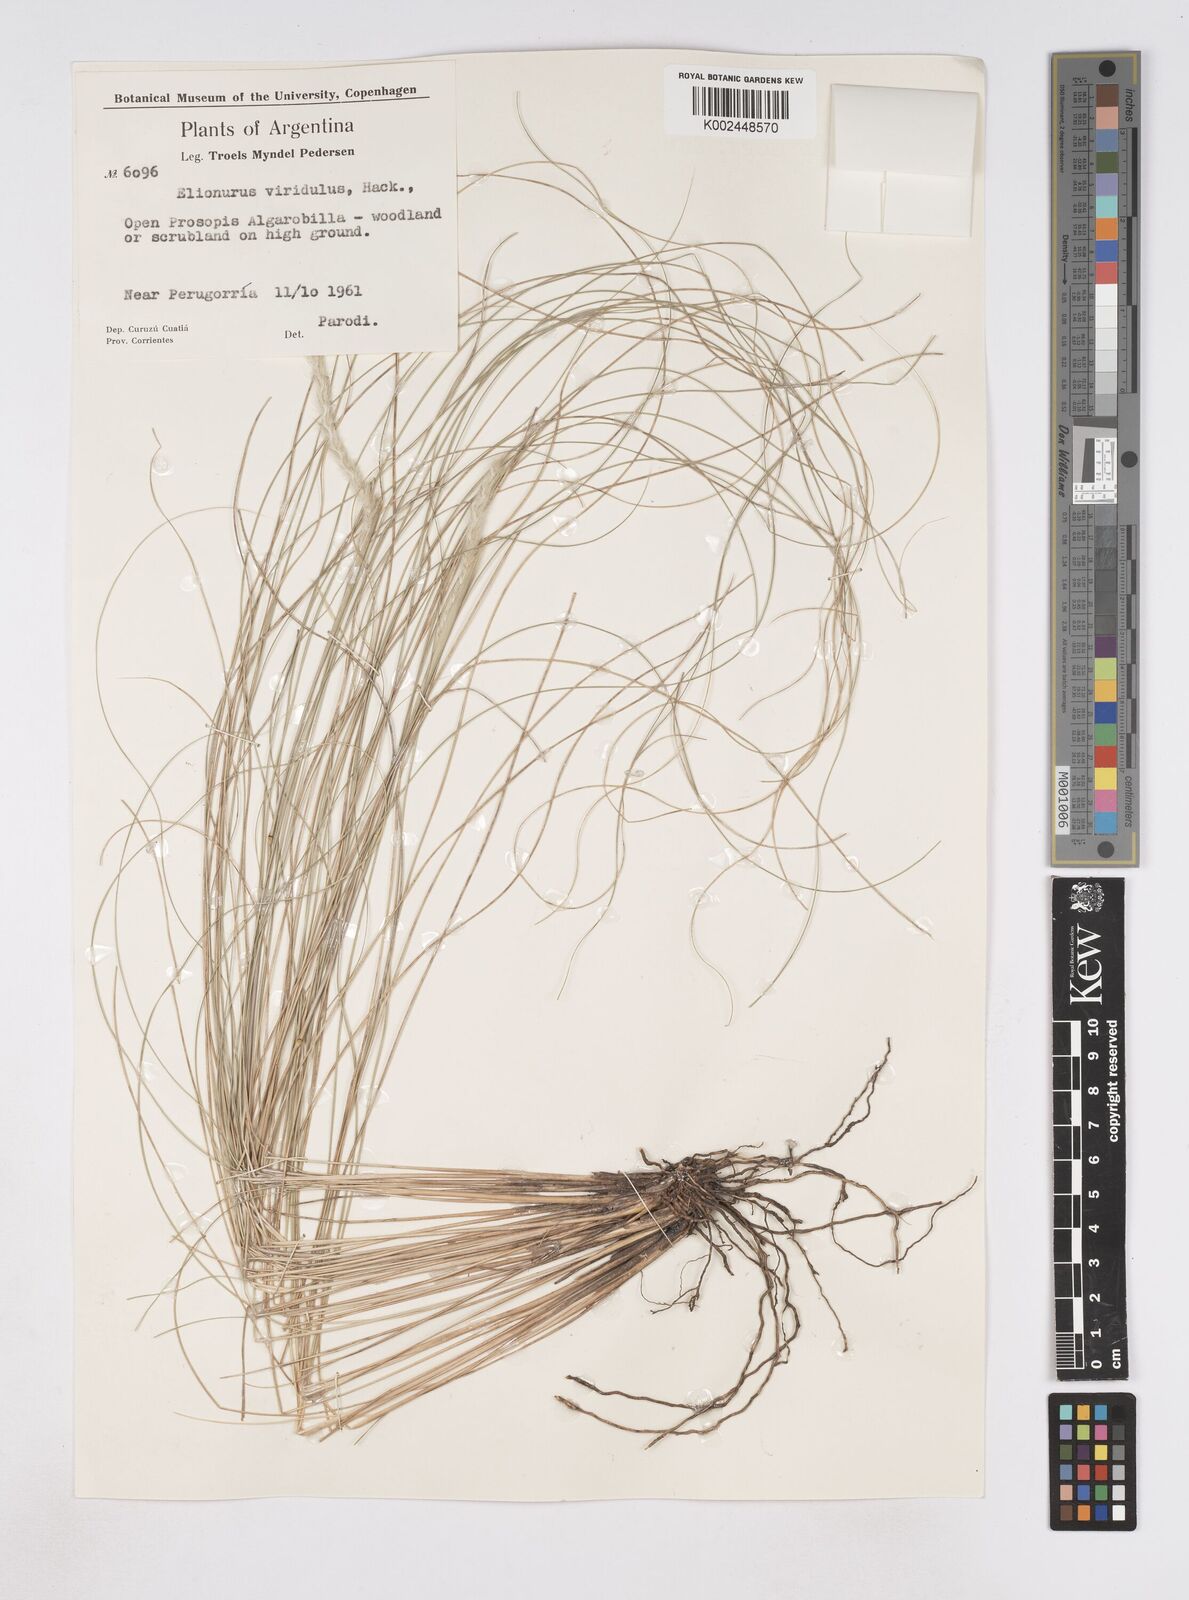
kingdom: Plantae
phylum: Tracheophyta
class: Liliopsida
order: Poales
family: Poaceae
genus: Elionurus
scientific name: Elionurus muticus
